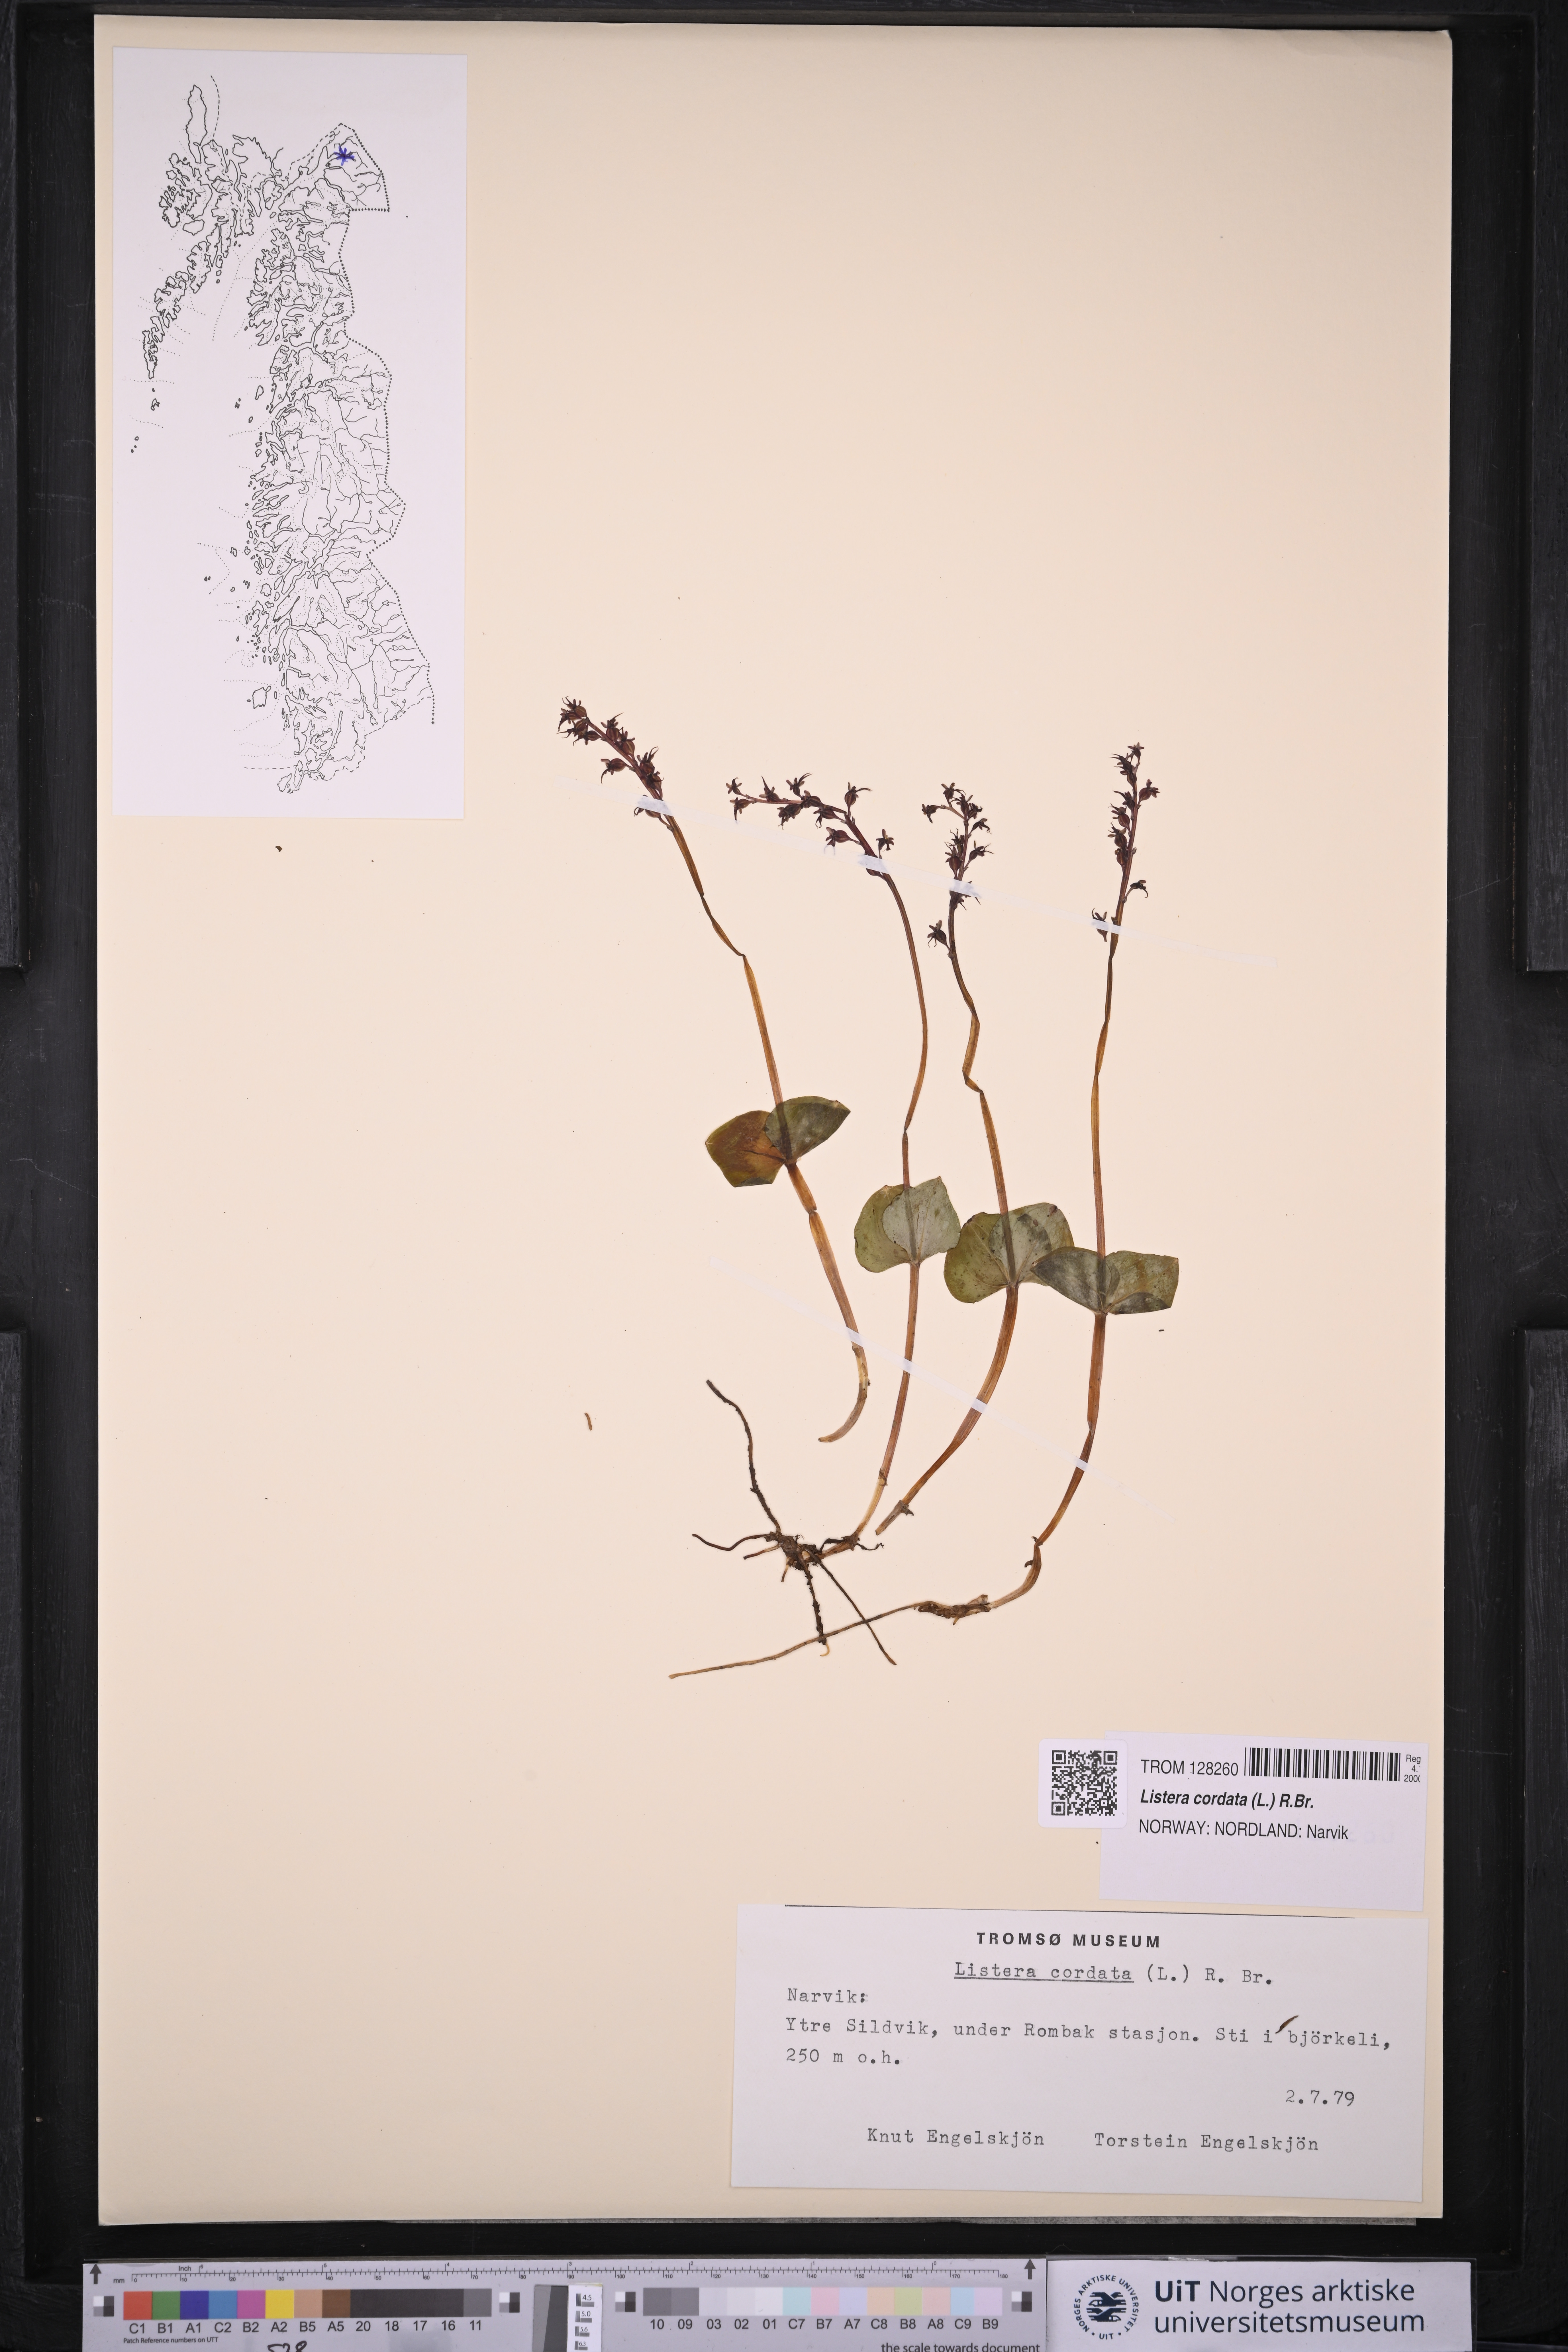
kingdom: Plantae
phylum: Tracheophyta
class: Liliopsida
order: Asparagales
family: Orchidaceae
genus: Neottia
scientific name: Neottia cordata
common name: Lesser twayblade
